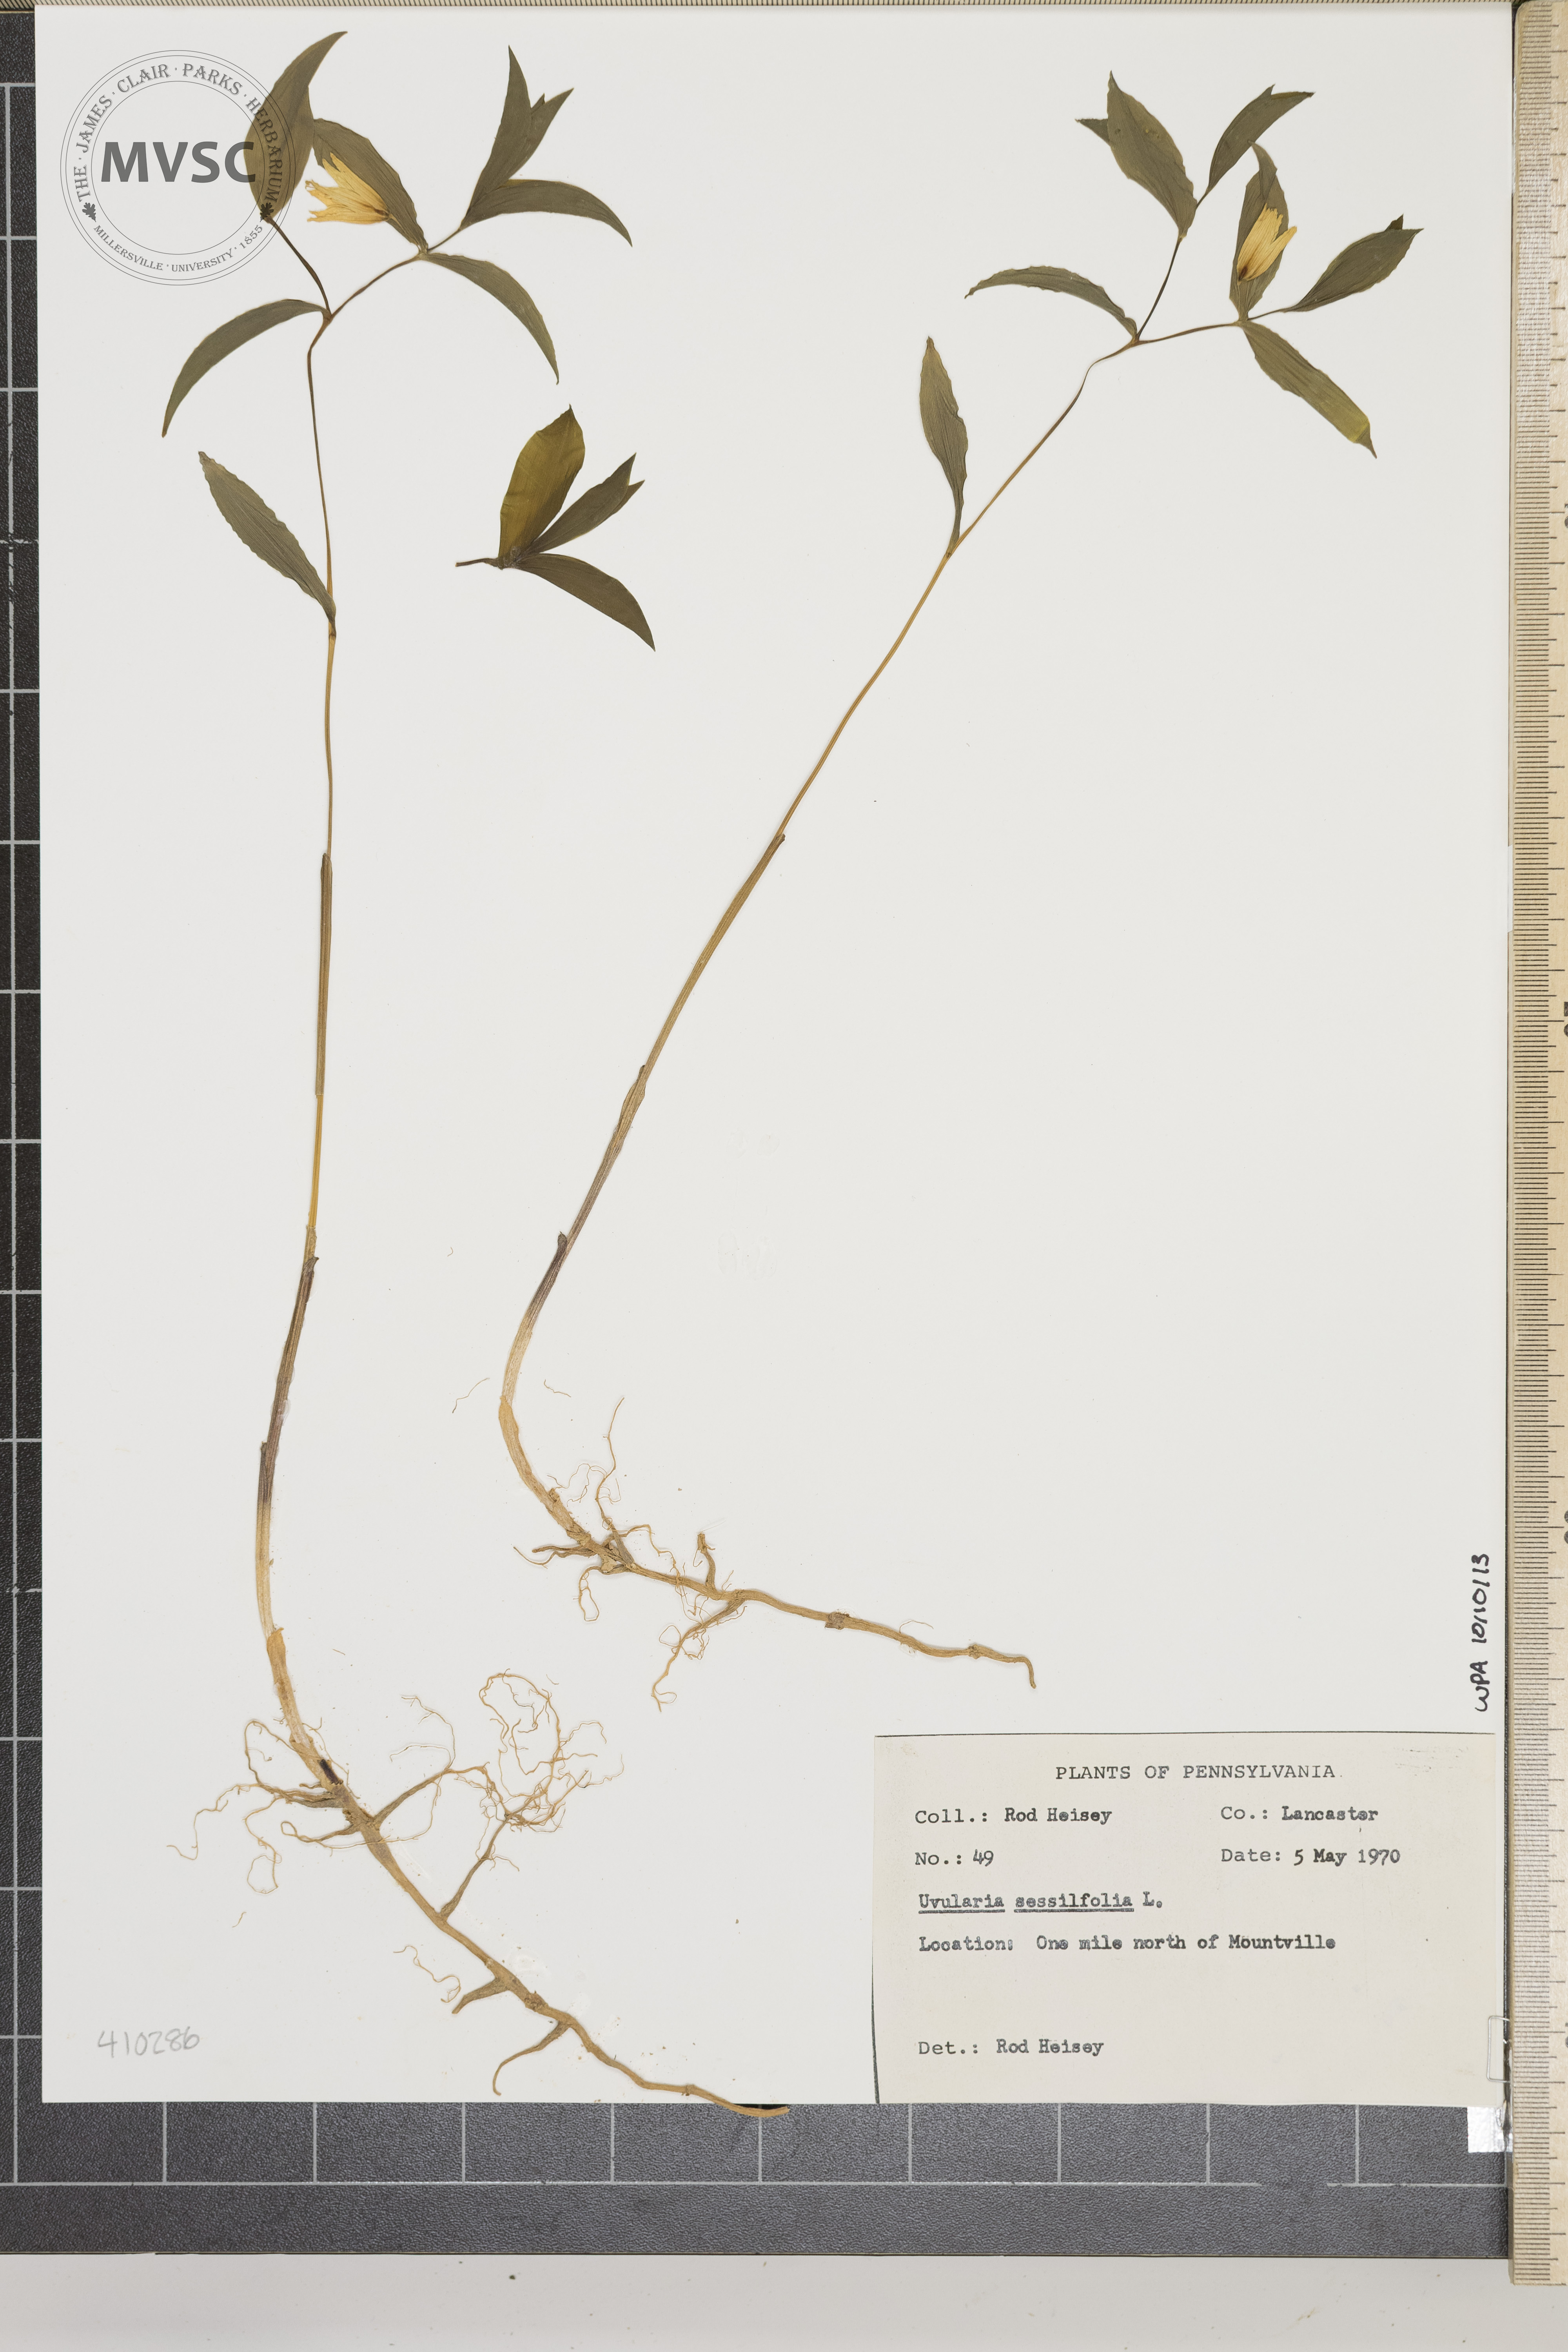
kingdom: Plantae
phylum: Tracheophyta
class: Liliopsida
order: Liliales
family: Colchicaceae
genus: Uvularia
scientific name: Uvularia sessilifolia
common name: Straw-lily
